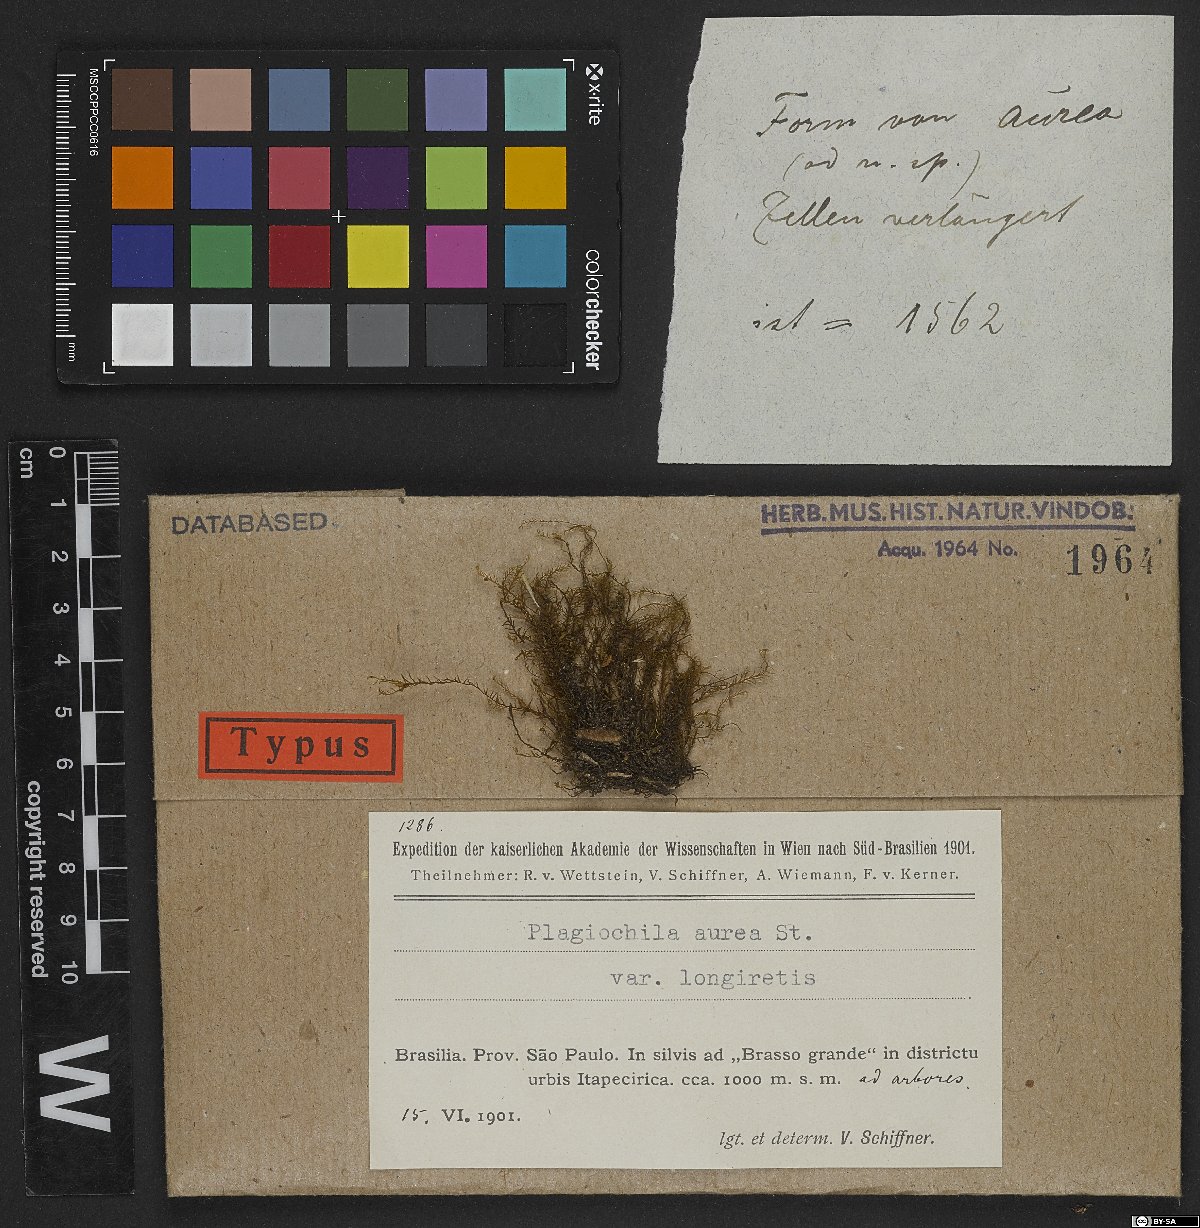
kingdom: Plantae
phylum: Marchantiophyta
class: Jungermanniopsida
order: Jungermanniales
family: Plagiochilaceae
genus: Plagiochila
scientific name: Plagiochila subbidentata
